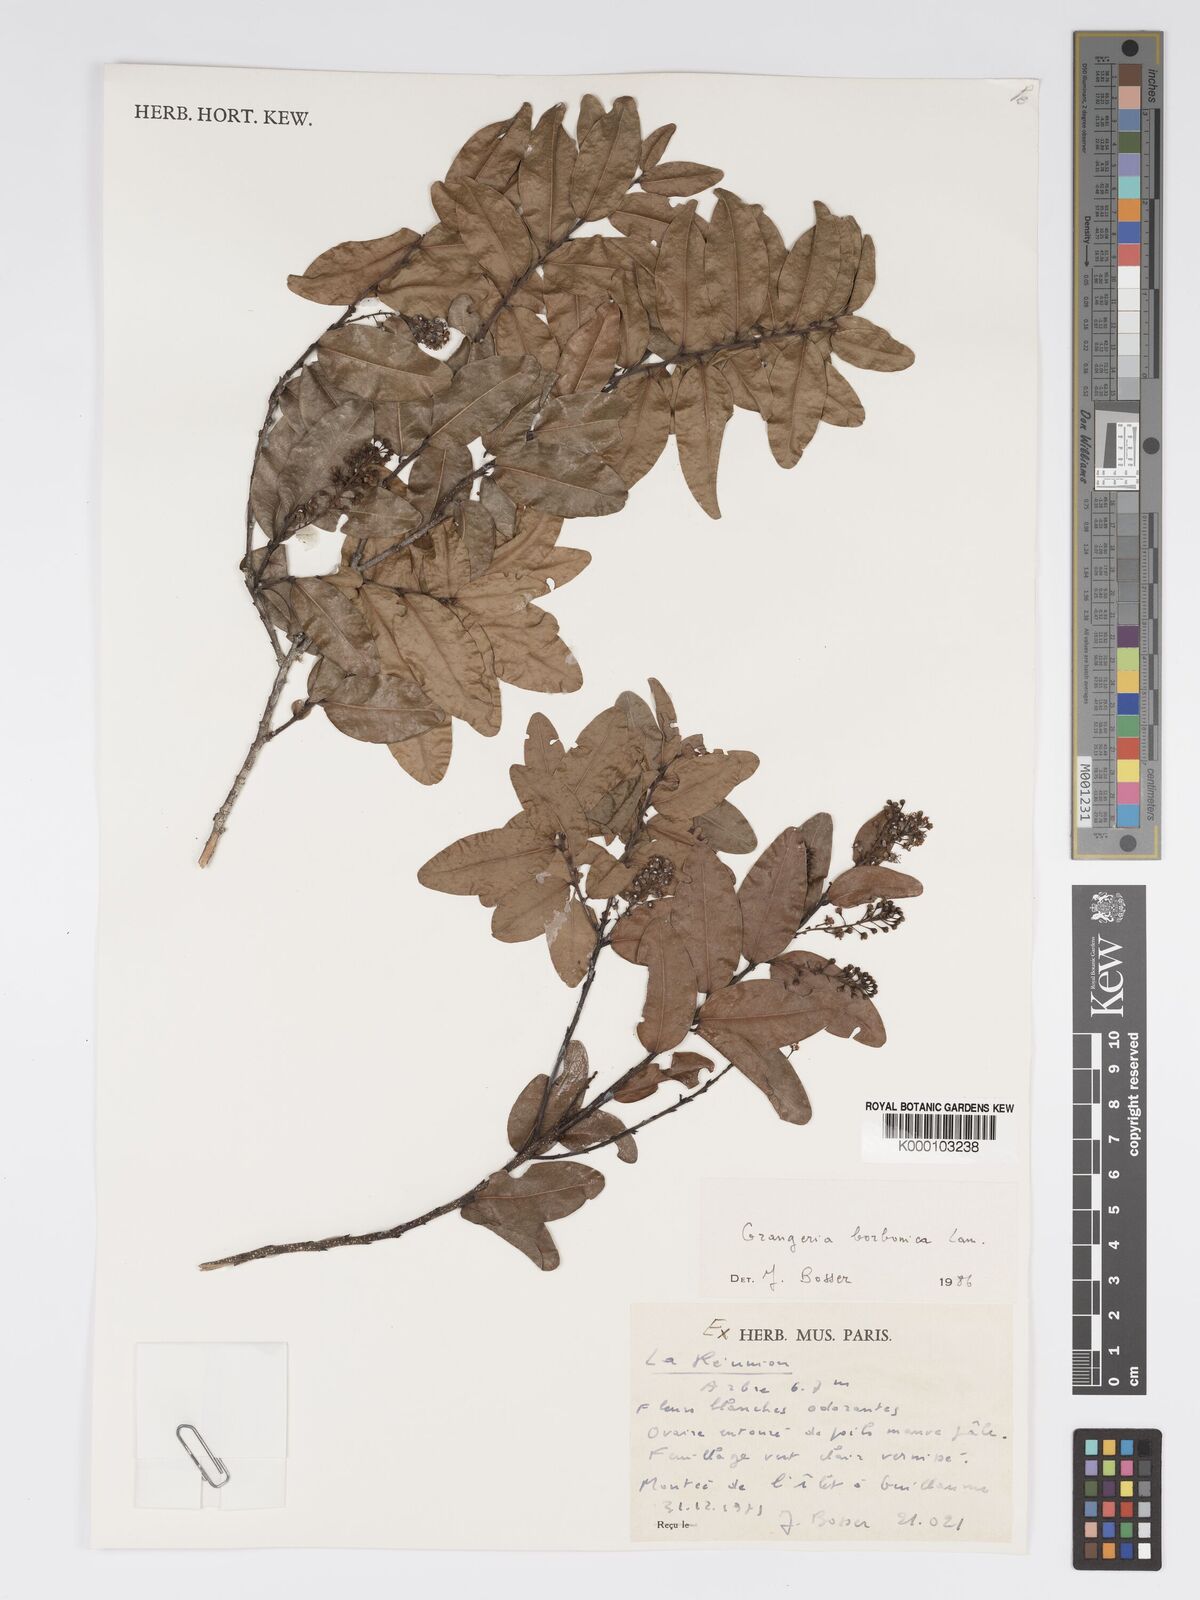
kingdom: Plantae
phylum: Tracheophyta
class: Magnoliopsida
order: Malpighiales
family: Chrysobalanaceae
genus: Grangeria
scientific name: Grangeria borbonica
